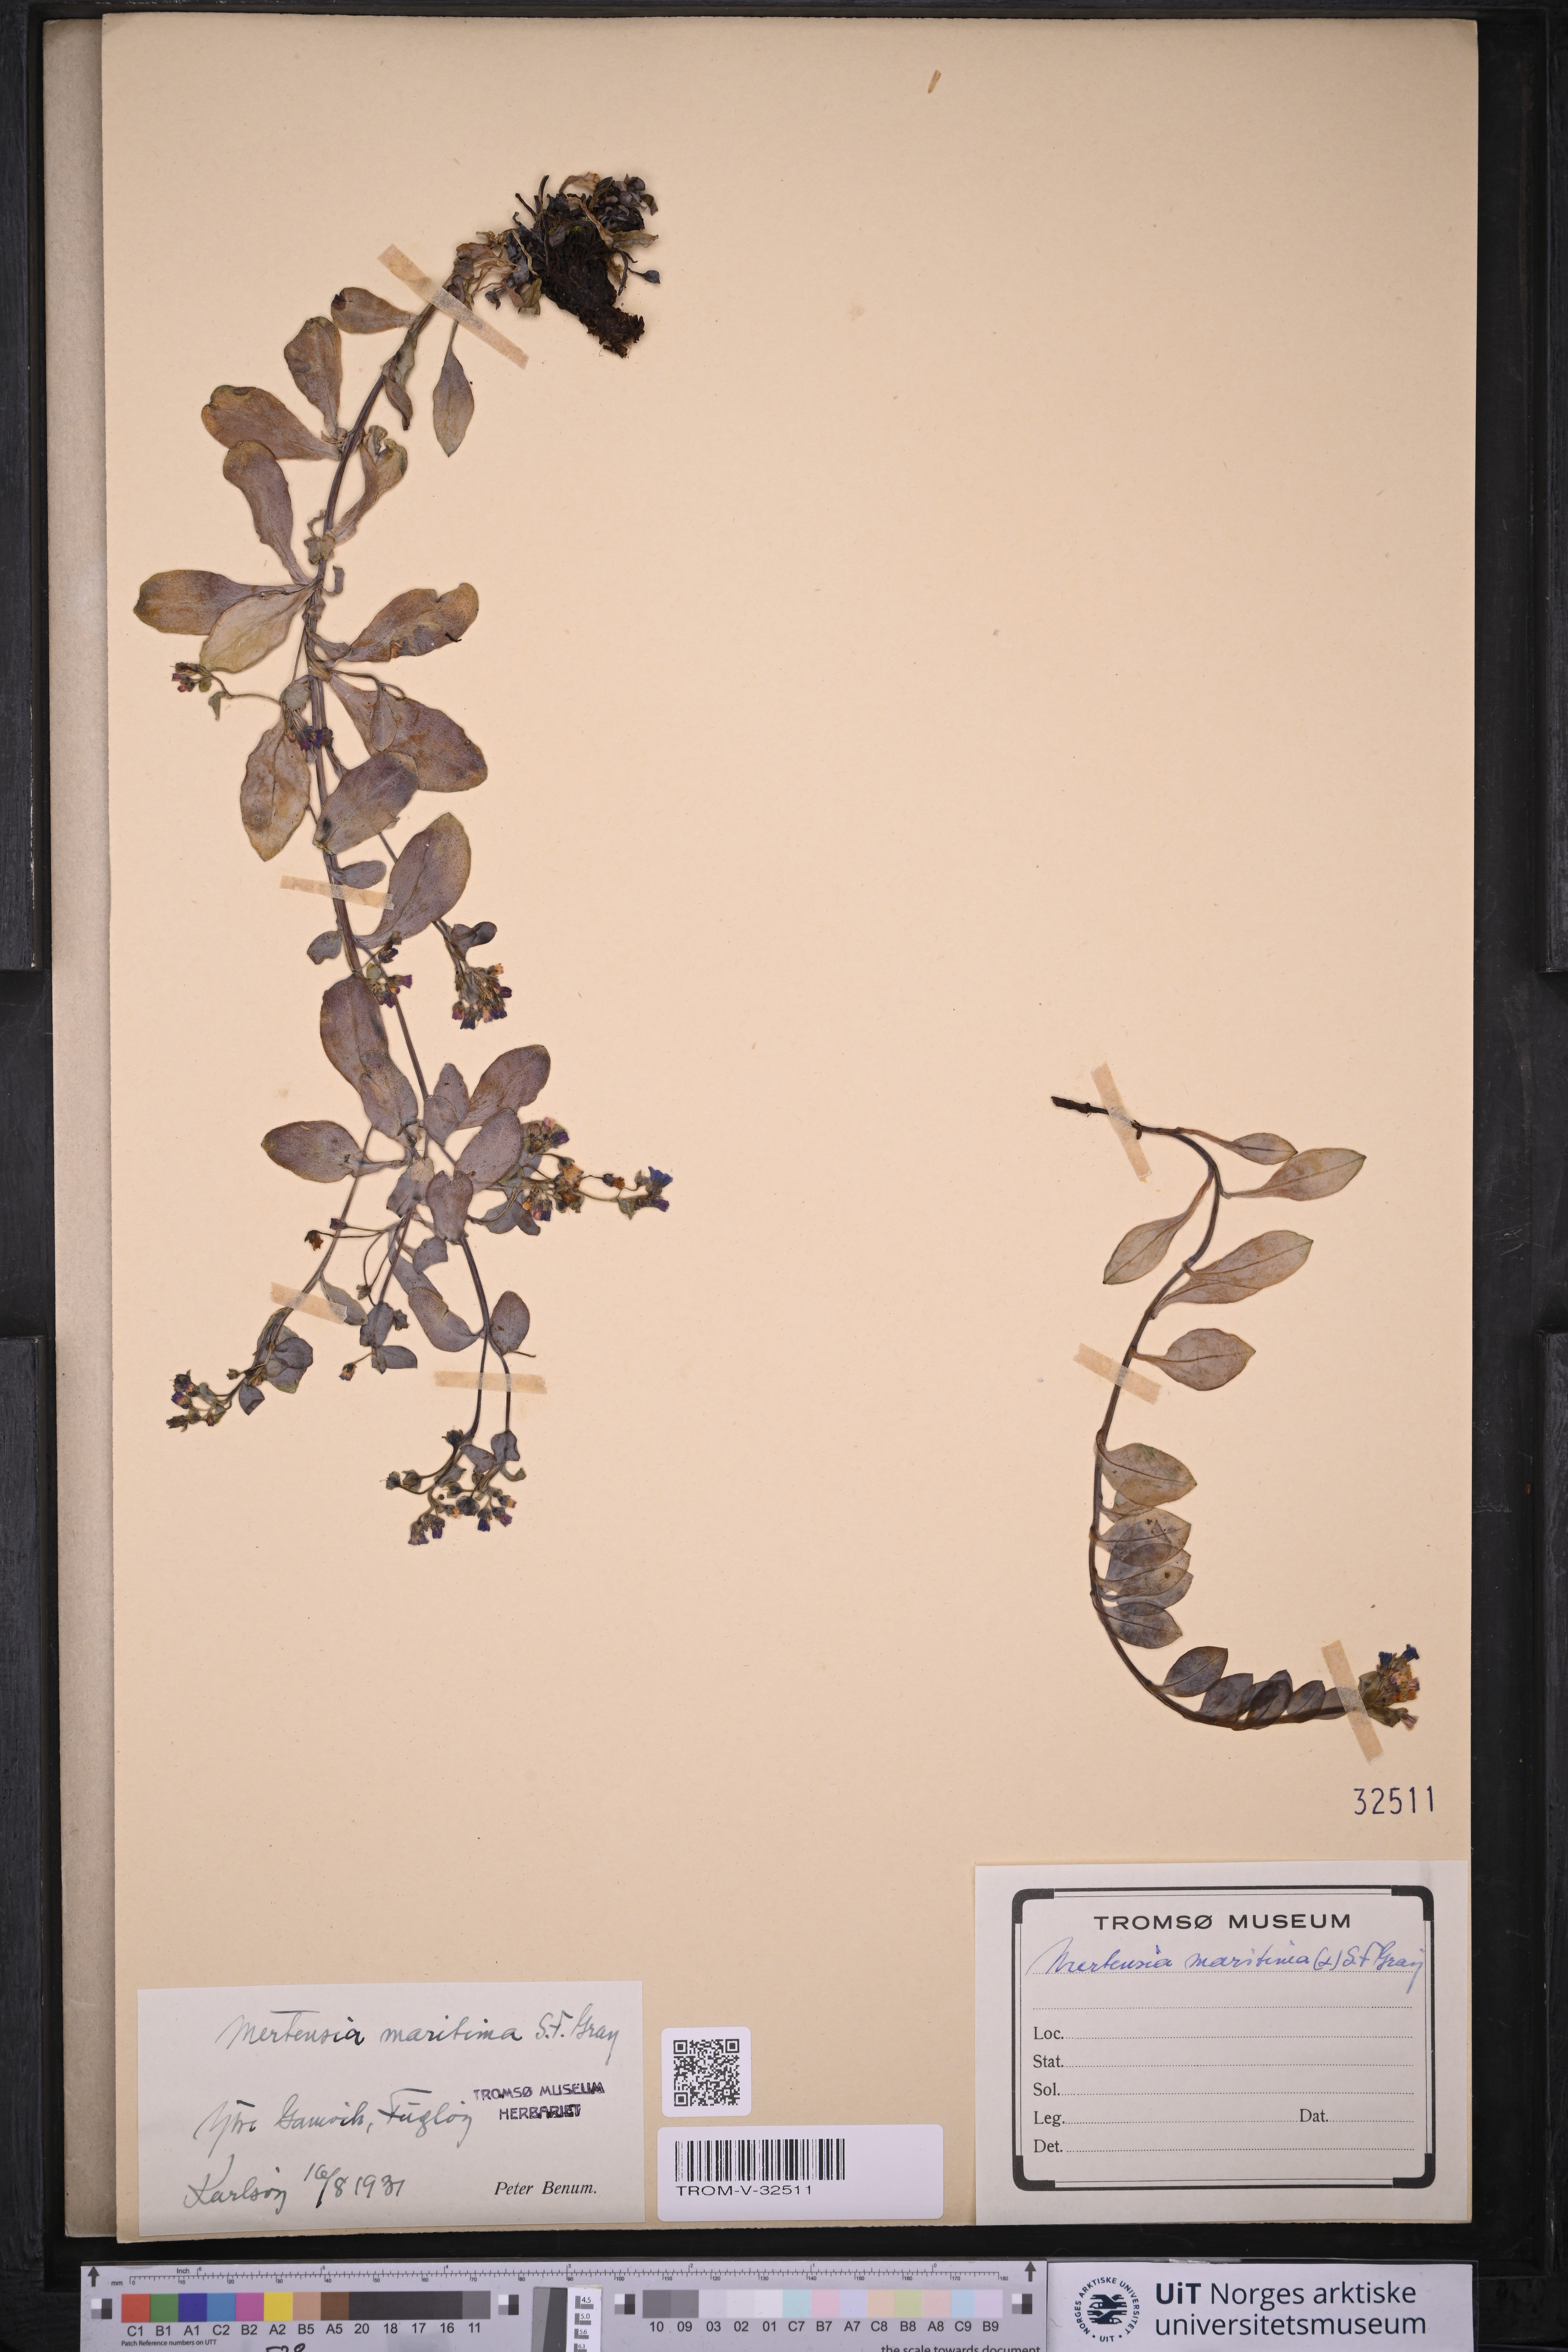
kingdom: Plantae
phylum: Tracheophyta
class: Magnoliopsida
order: Boraginales
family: Boraginaceae
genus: Mertensia
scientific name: Mertensia maritima
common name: Oysterplant
